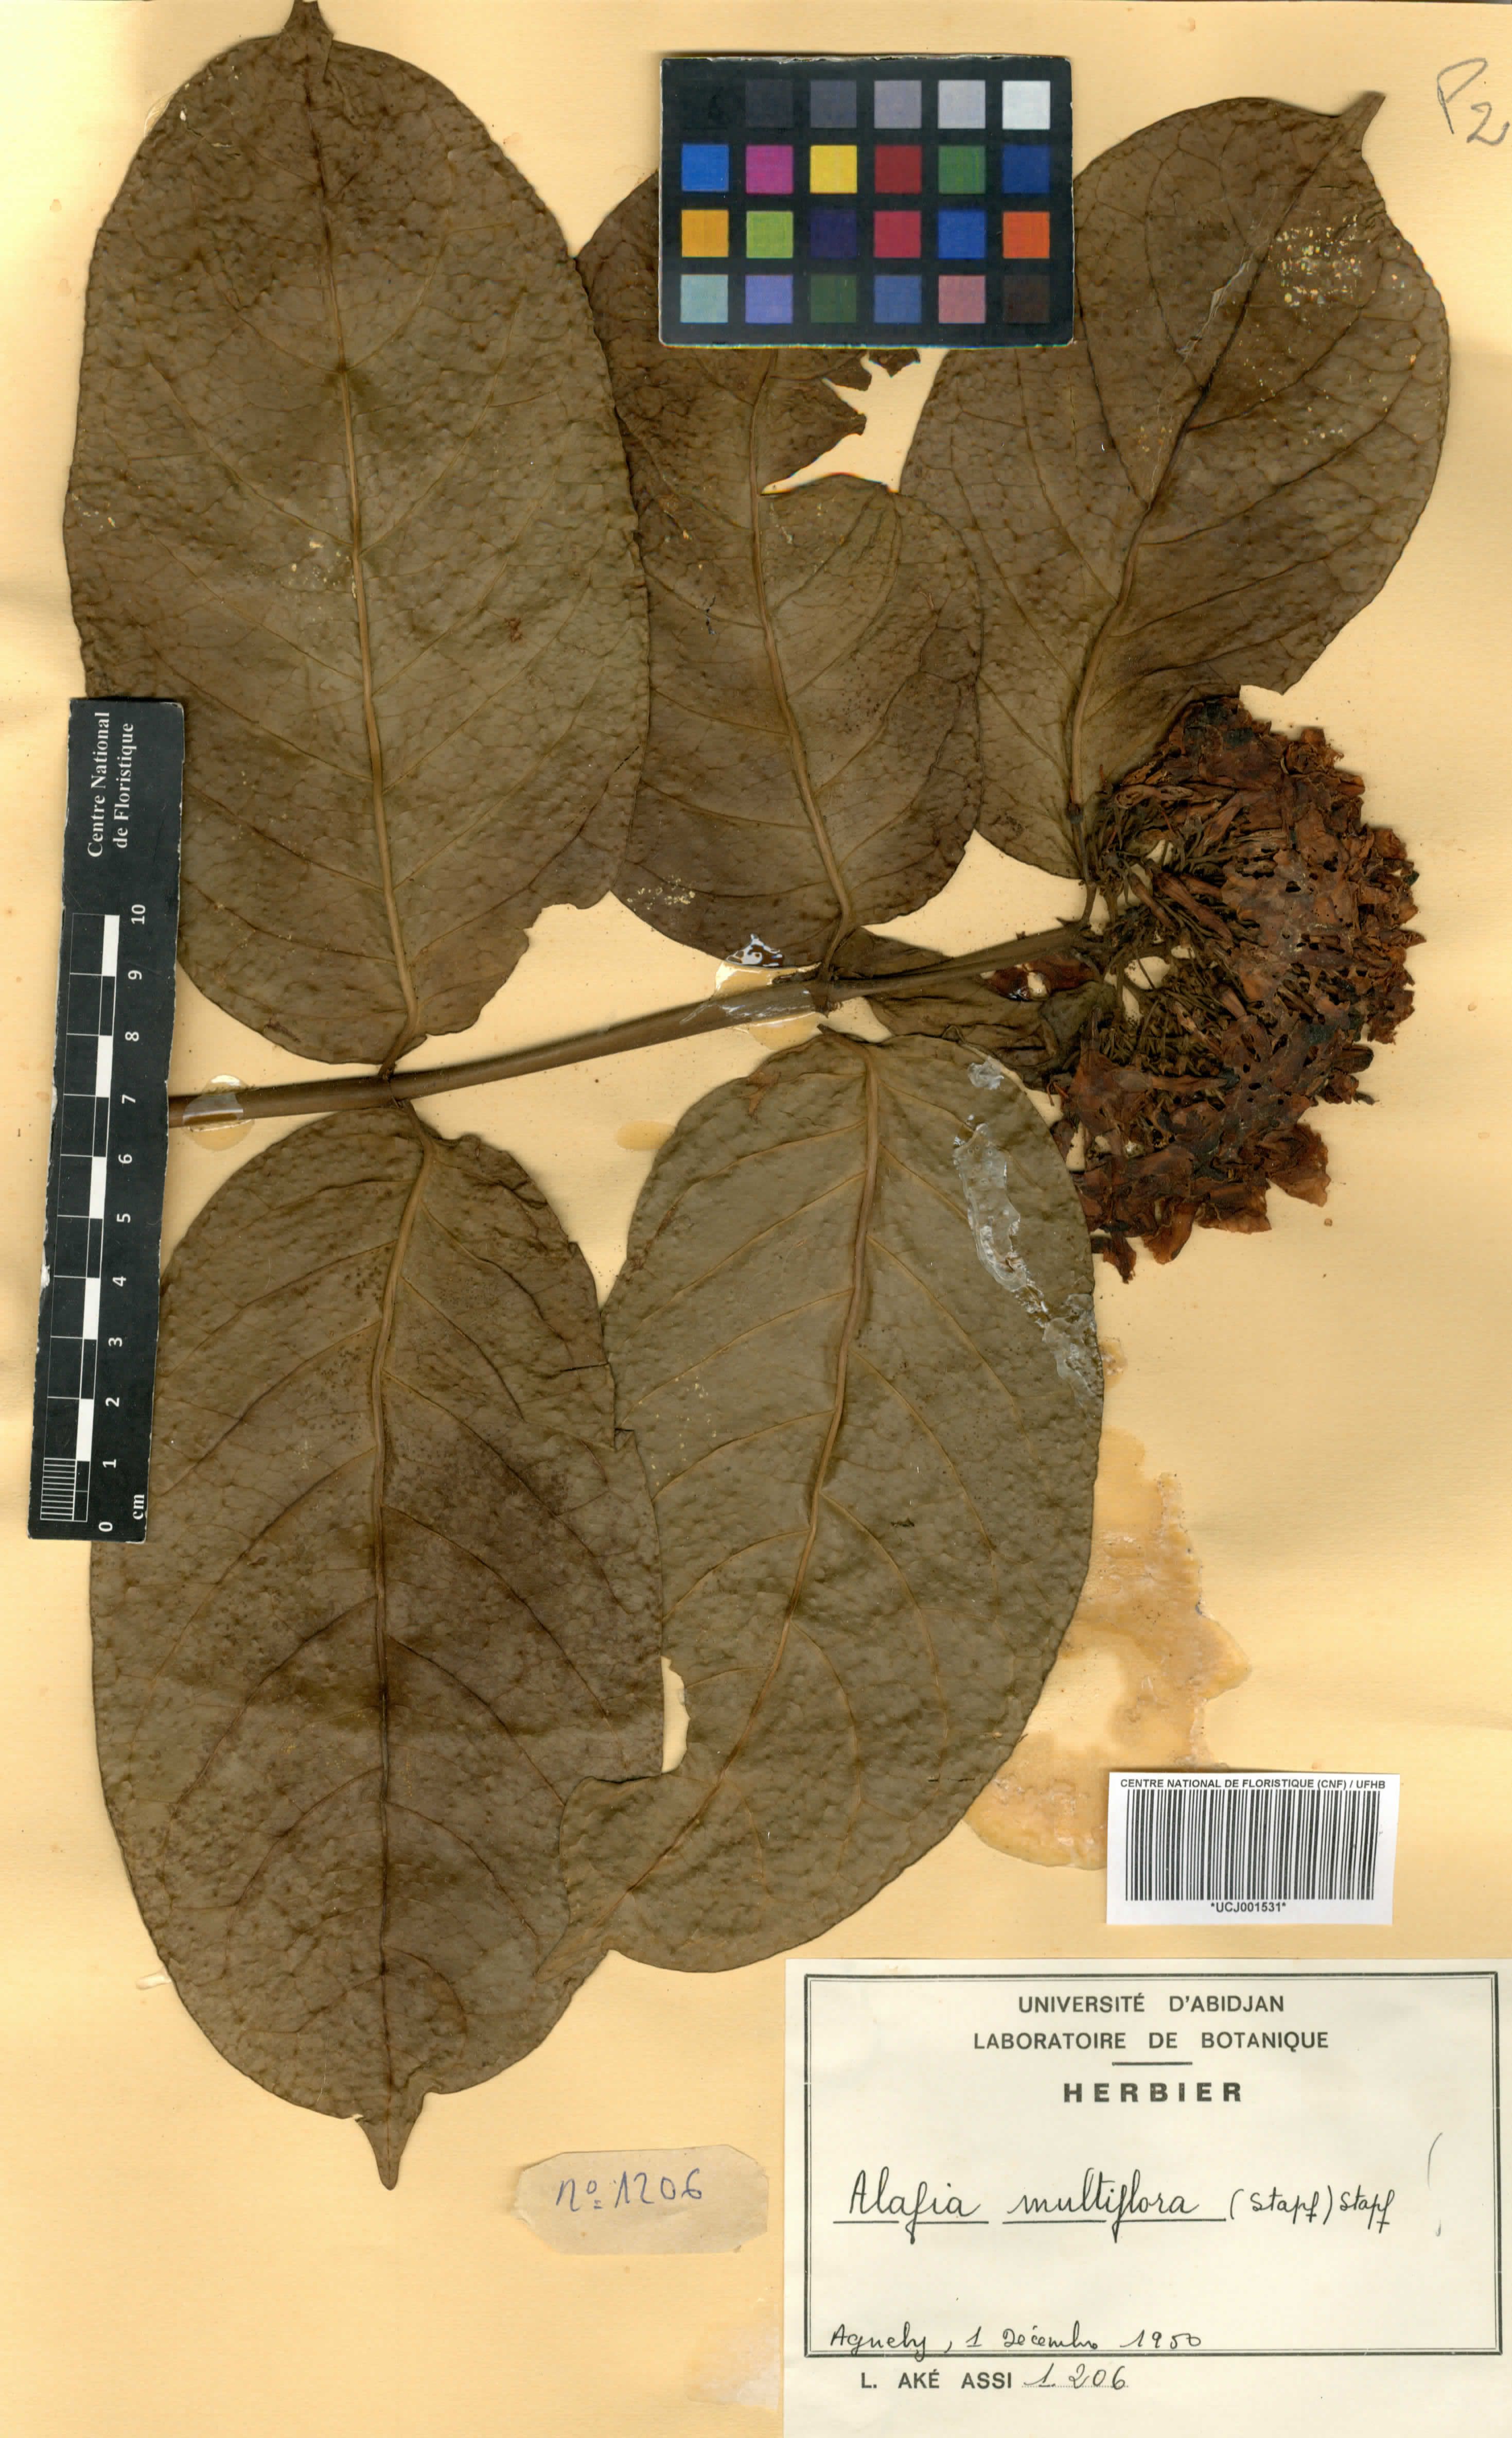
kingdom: Plantae
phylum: Tracheophyta
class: Magnoliopsida
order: Gentianales
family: Apocynaceae
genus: Alafia
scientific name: Alafia multiflora
